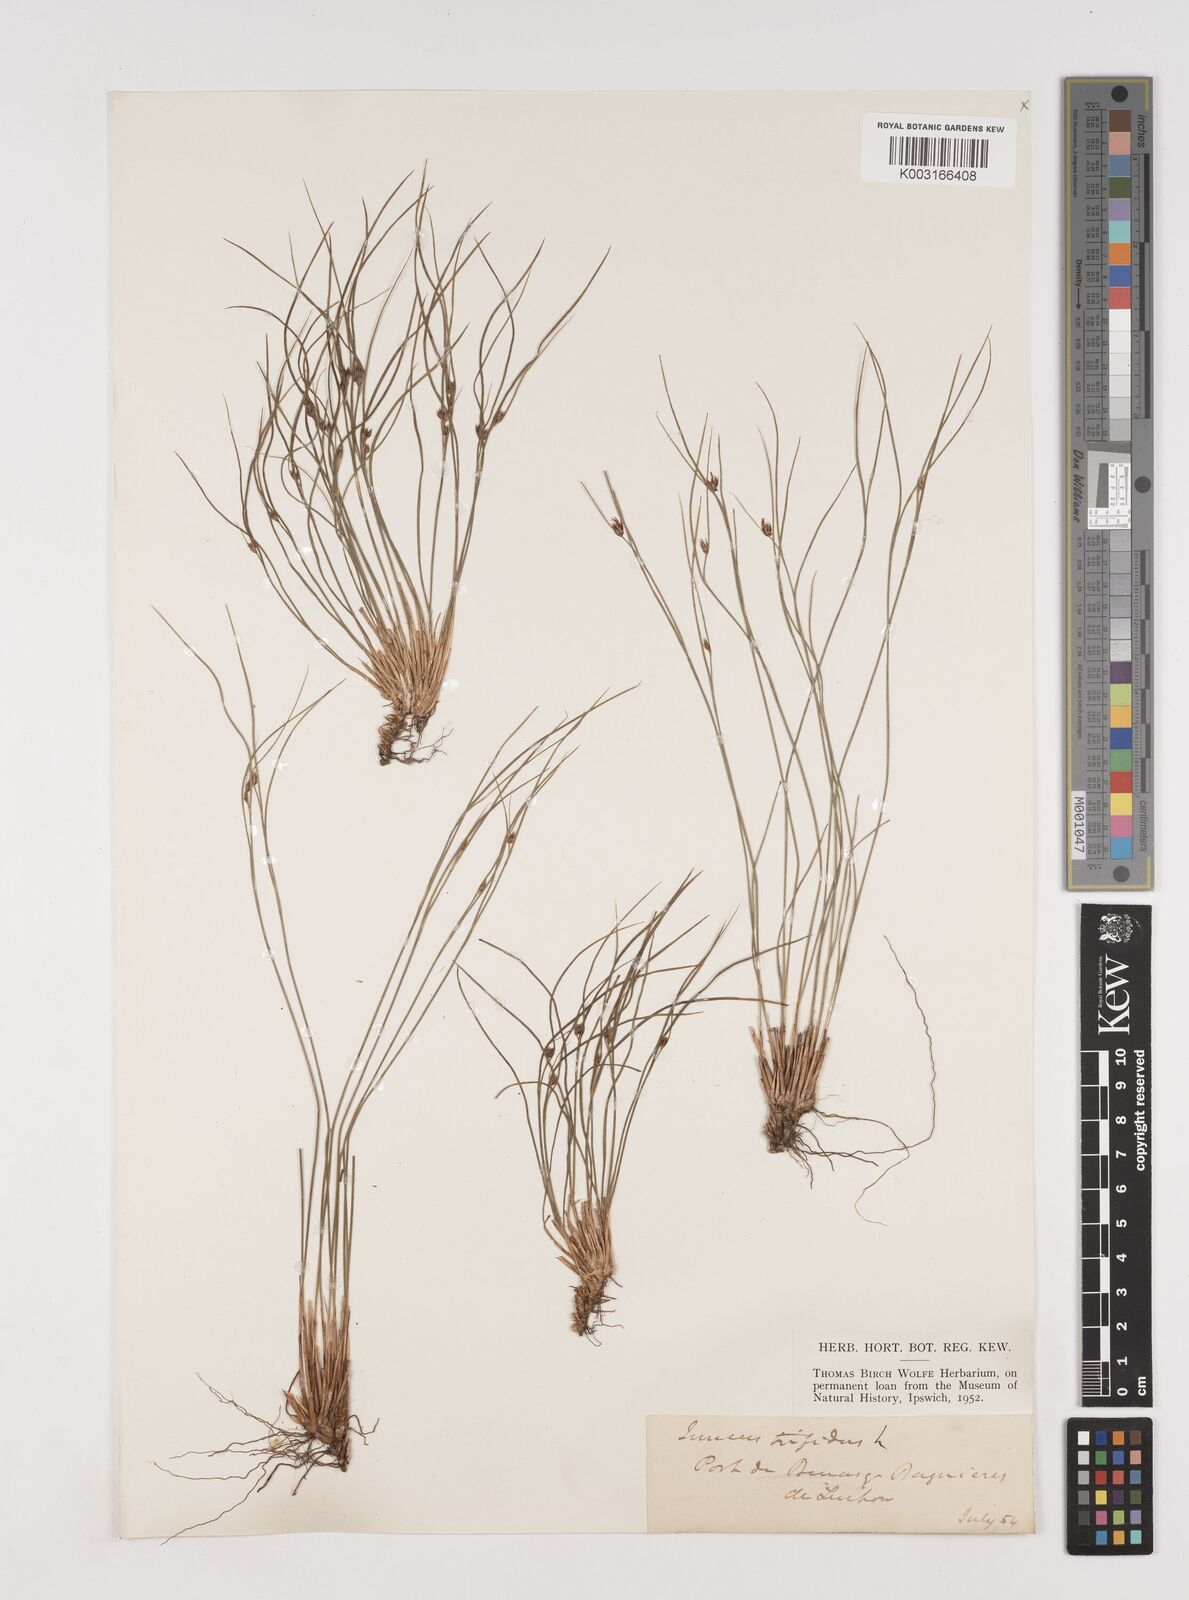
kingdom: Plantae
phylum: Tracheophyta
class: Liliopsida
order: Poales
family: Juncaceae
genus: Oreojuncus
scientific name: Oreojuncus trifidus
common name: Highland rush
